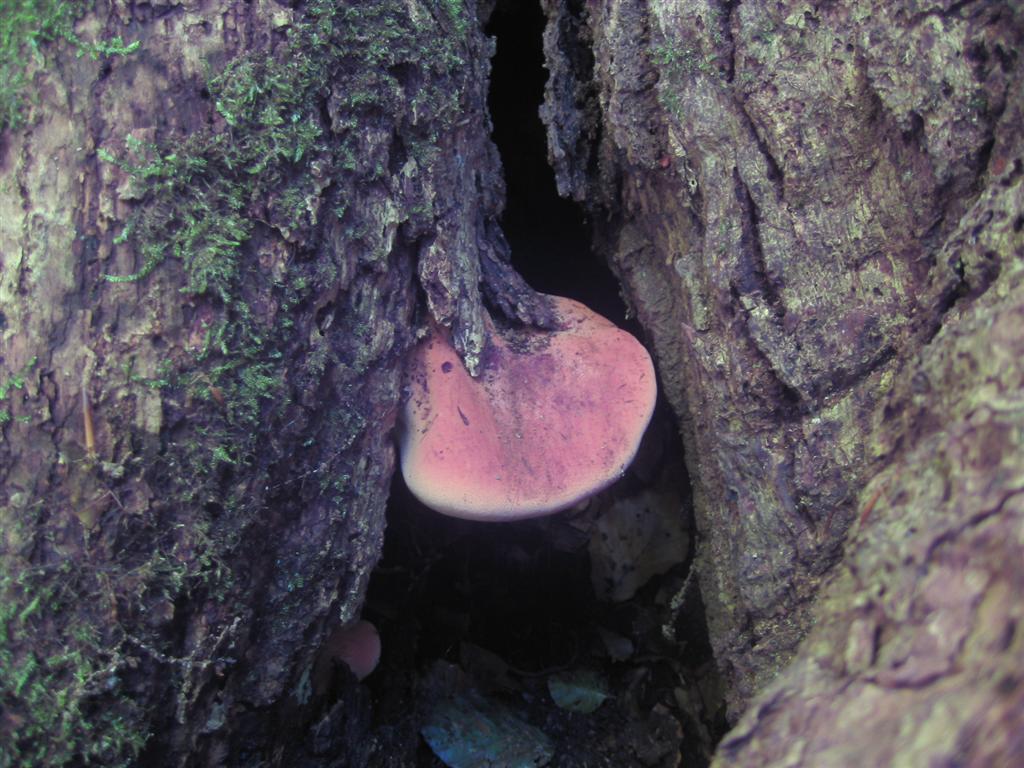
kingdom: Fungi
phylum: Basidiomycota
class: Agaricomycetes
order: Agaricales
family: Fistulinaceae
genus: Fistulina
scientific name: Fistulina hepatica
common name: oksetunge
